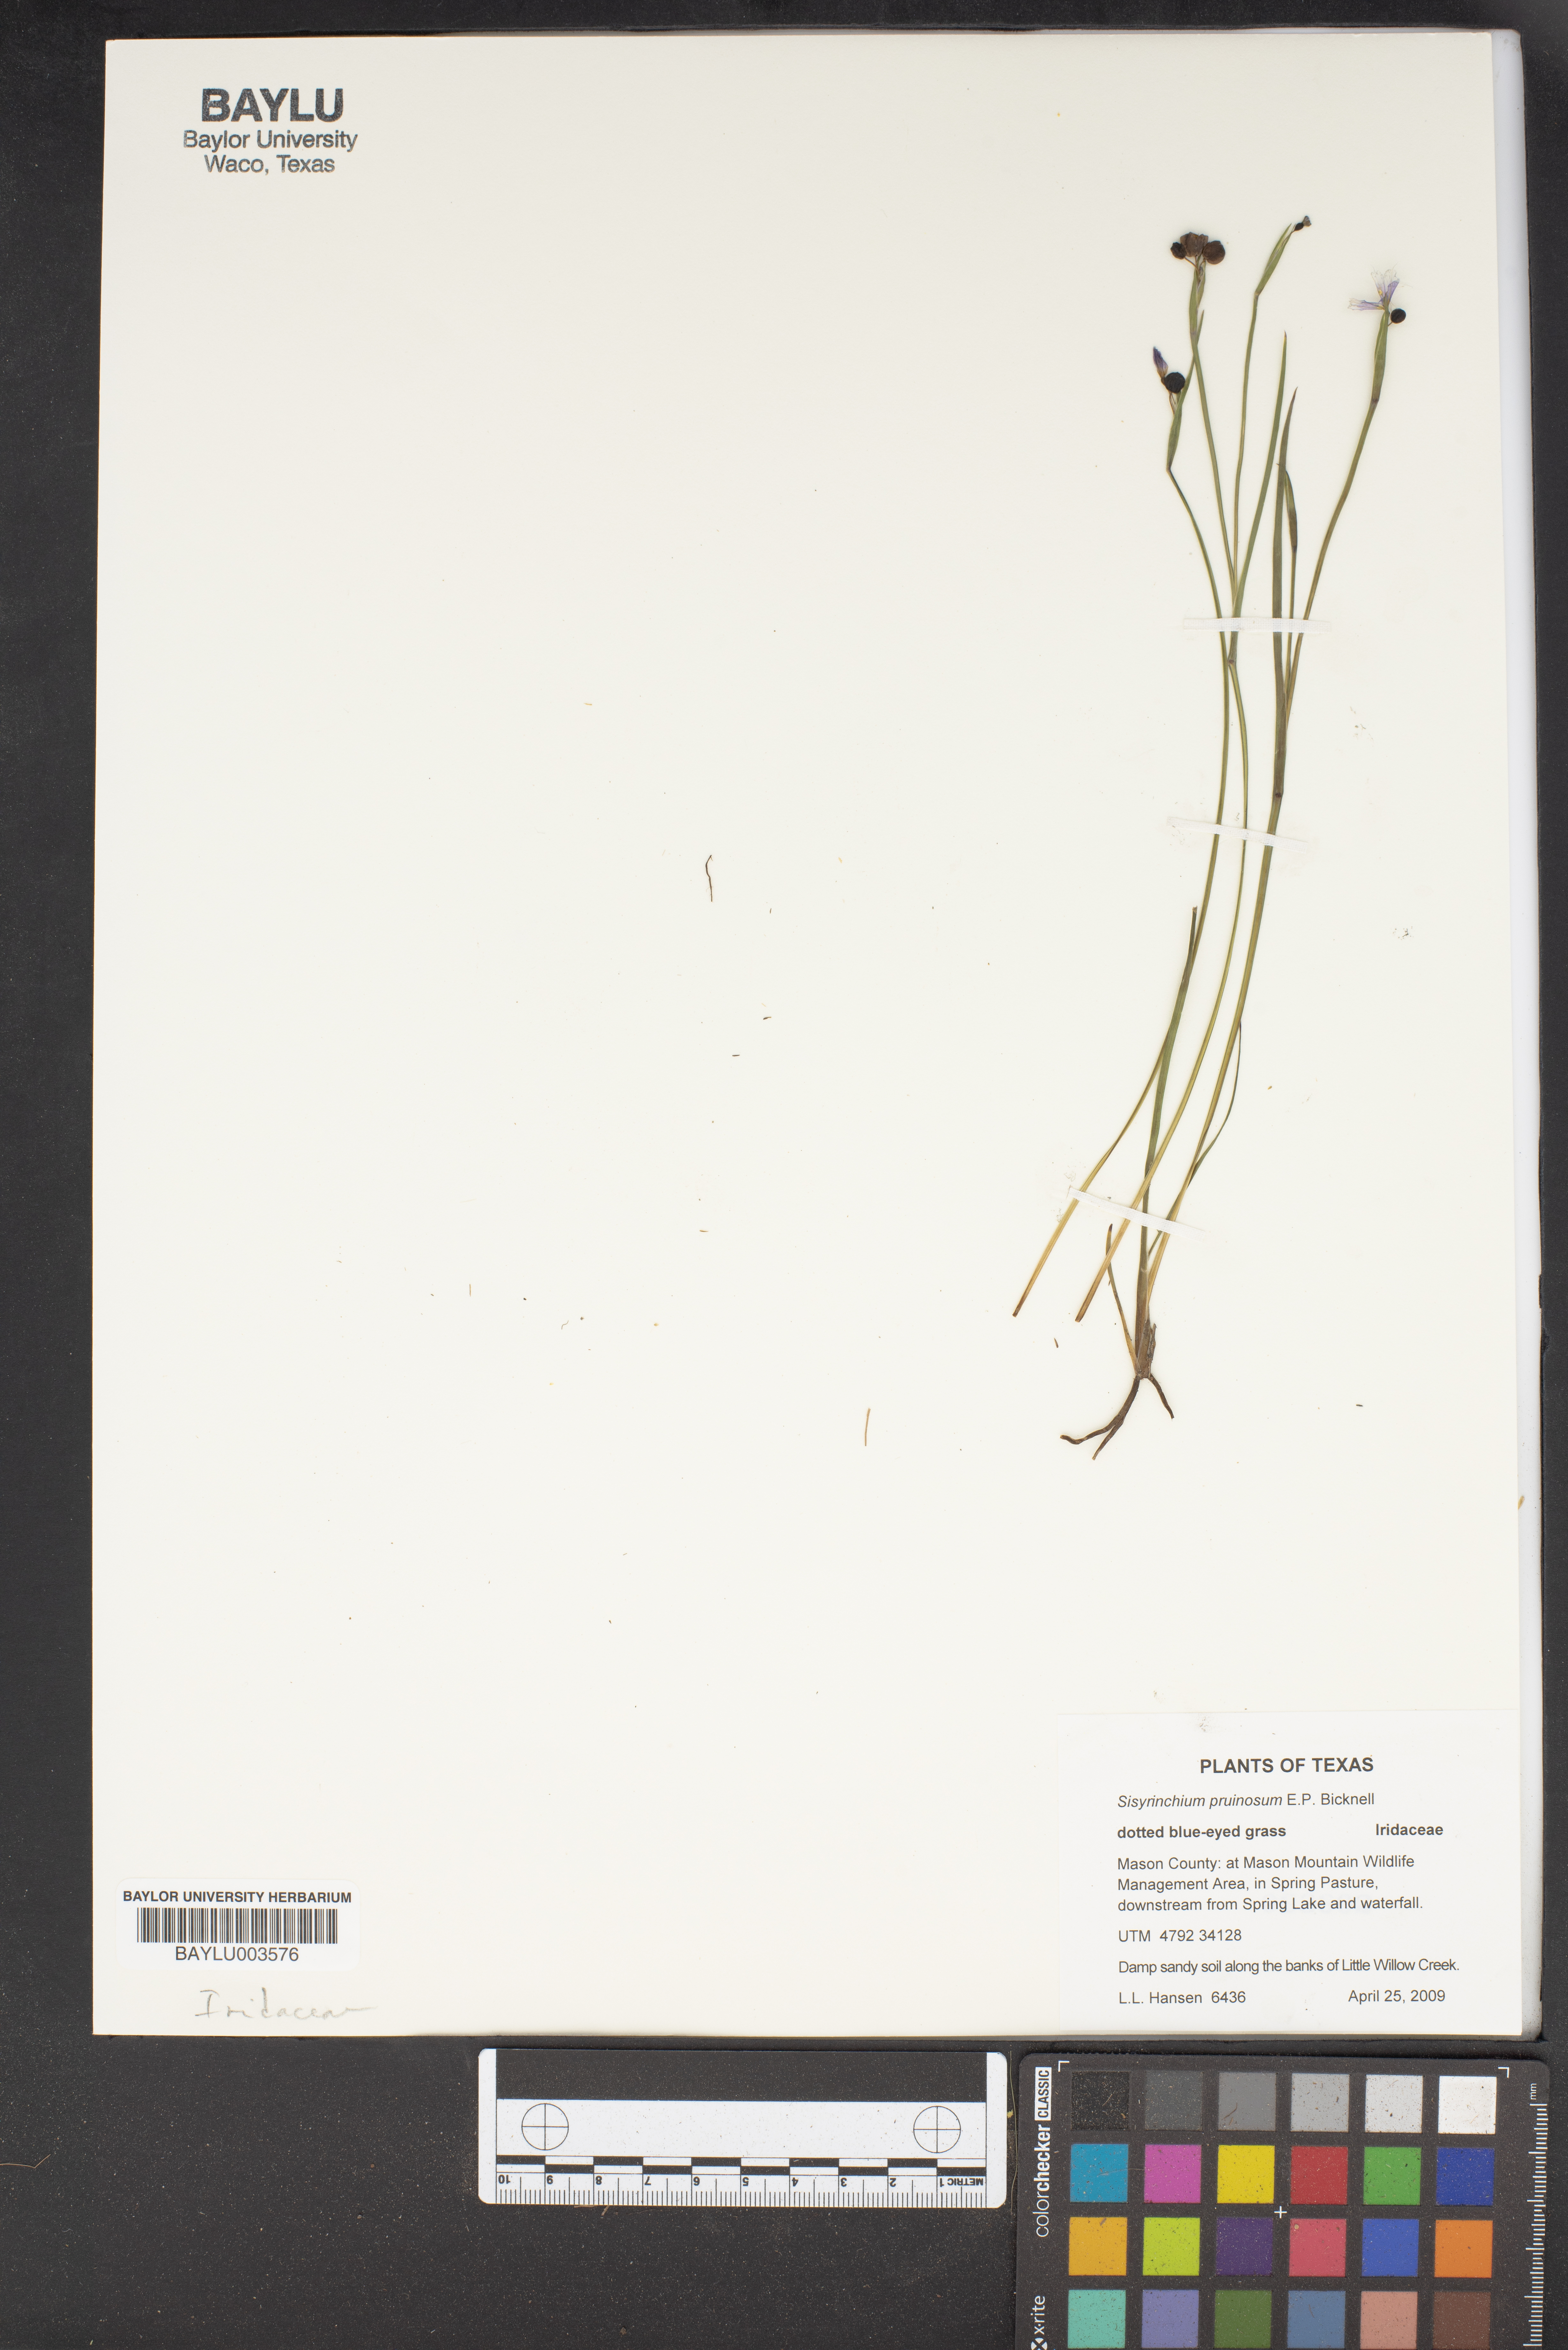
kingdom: Plantae
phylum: Tracheophyta
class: Liliopsida
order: Asparagales
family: Iridaceae
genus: Sisyrinchium
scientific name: Sisyrinchium pruinosum
